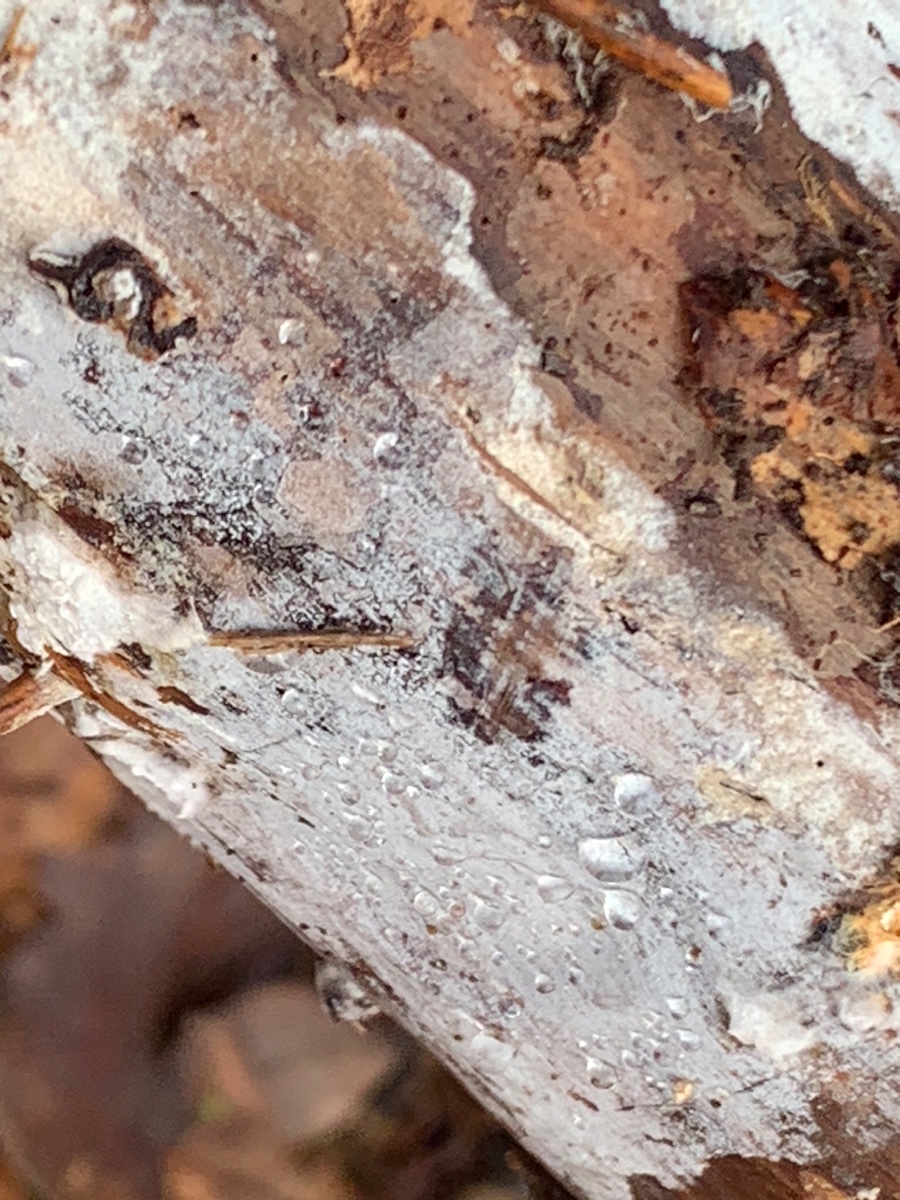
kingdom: Fungi
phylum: Basidiomycota
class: Tremellomycetes
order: Tremellales
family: Exidiaceae
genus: Exidiopsis
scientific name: Exidiopsis effusa
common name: smuk bævrehinde
